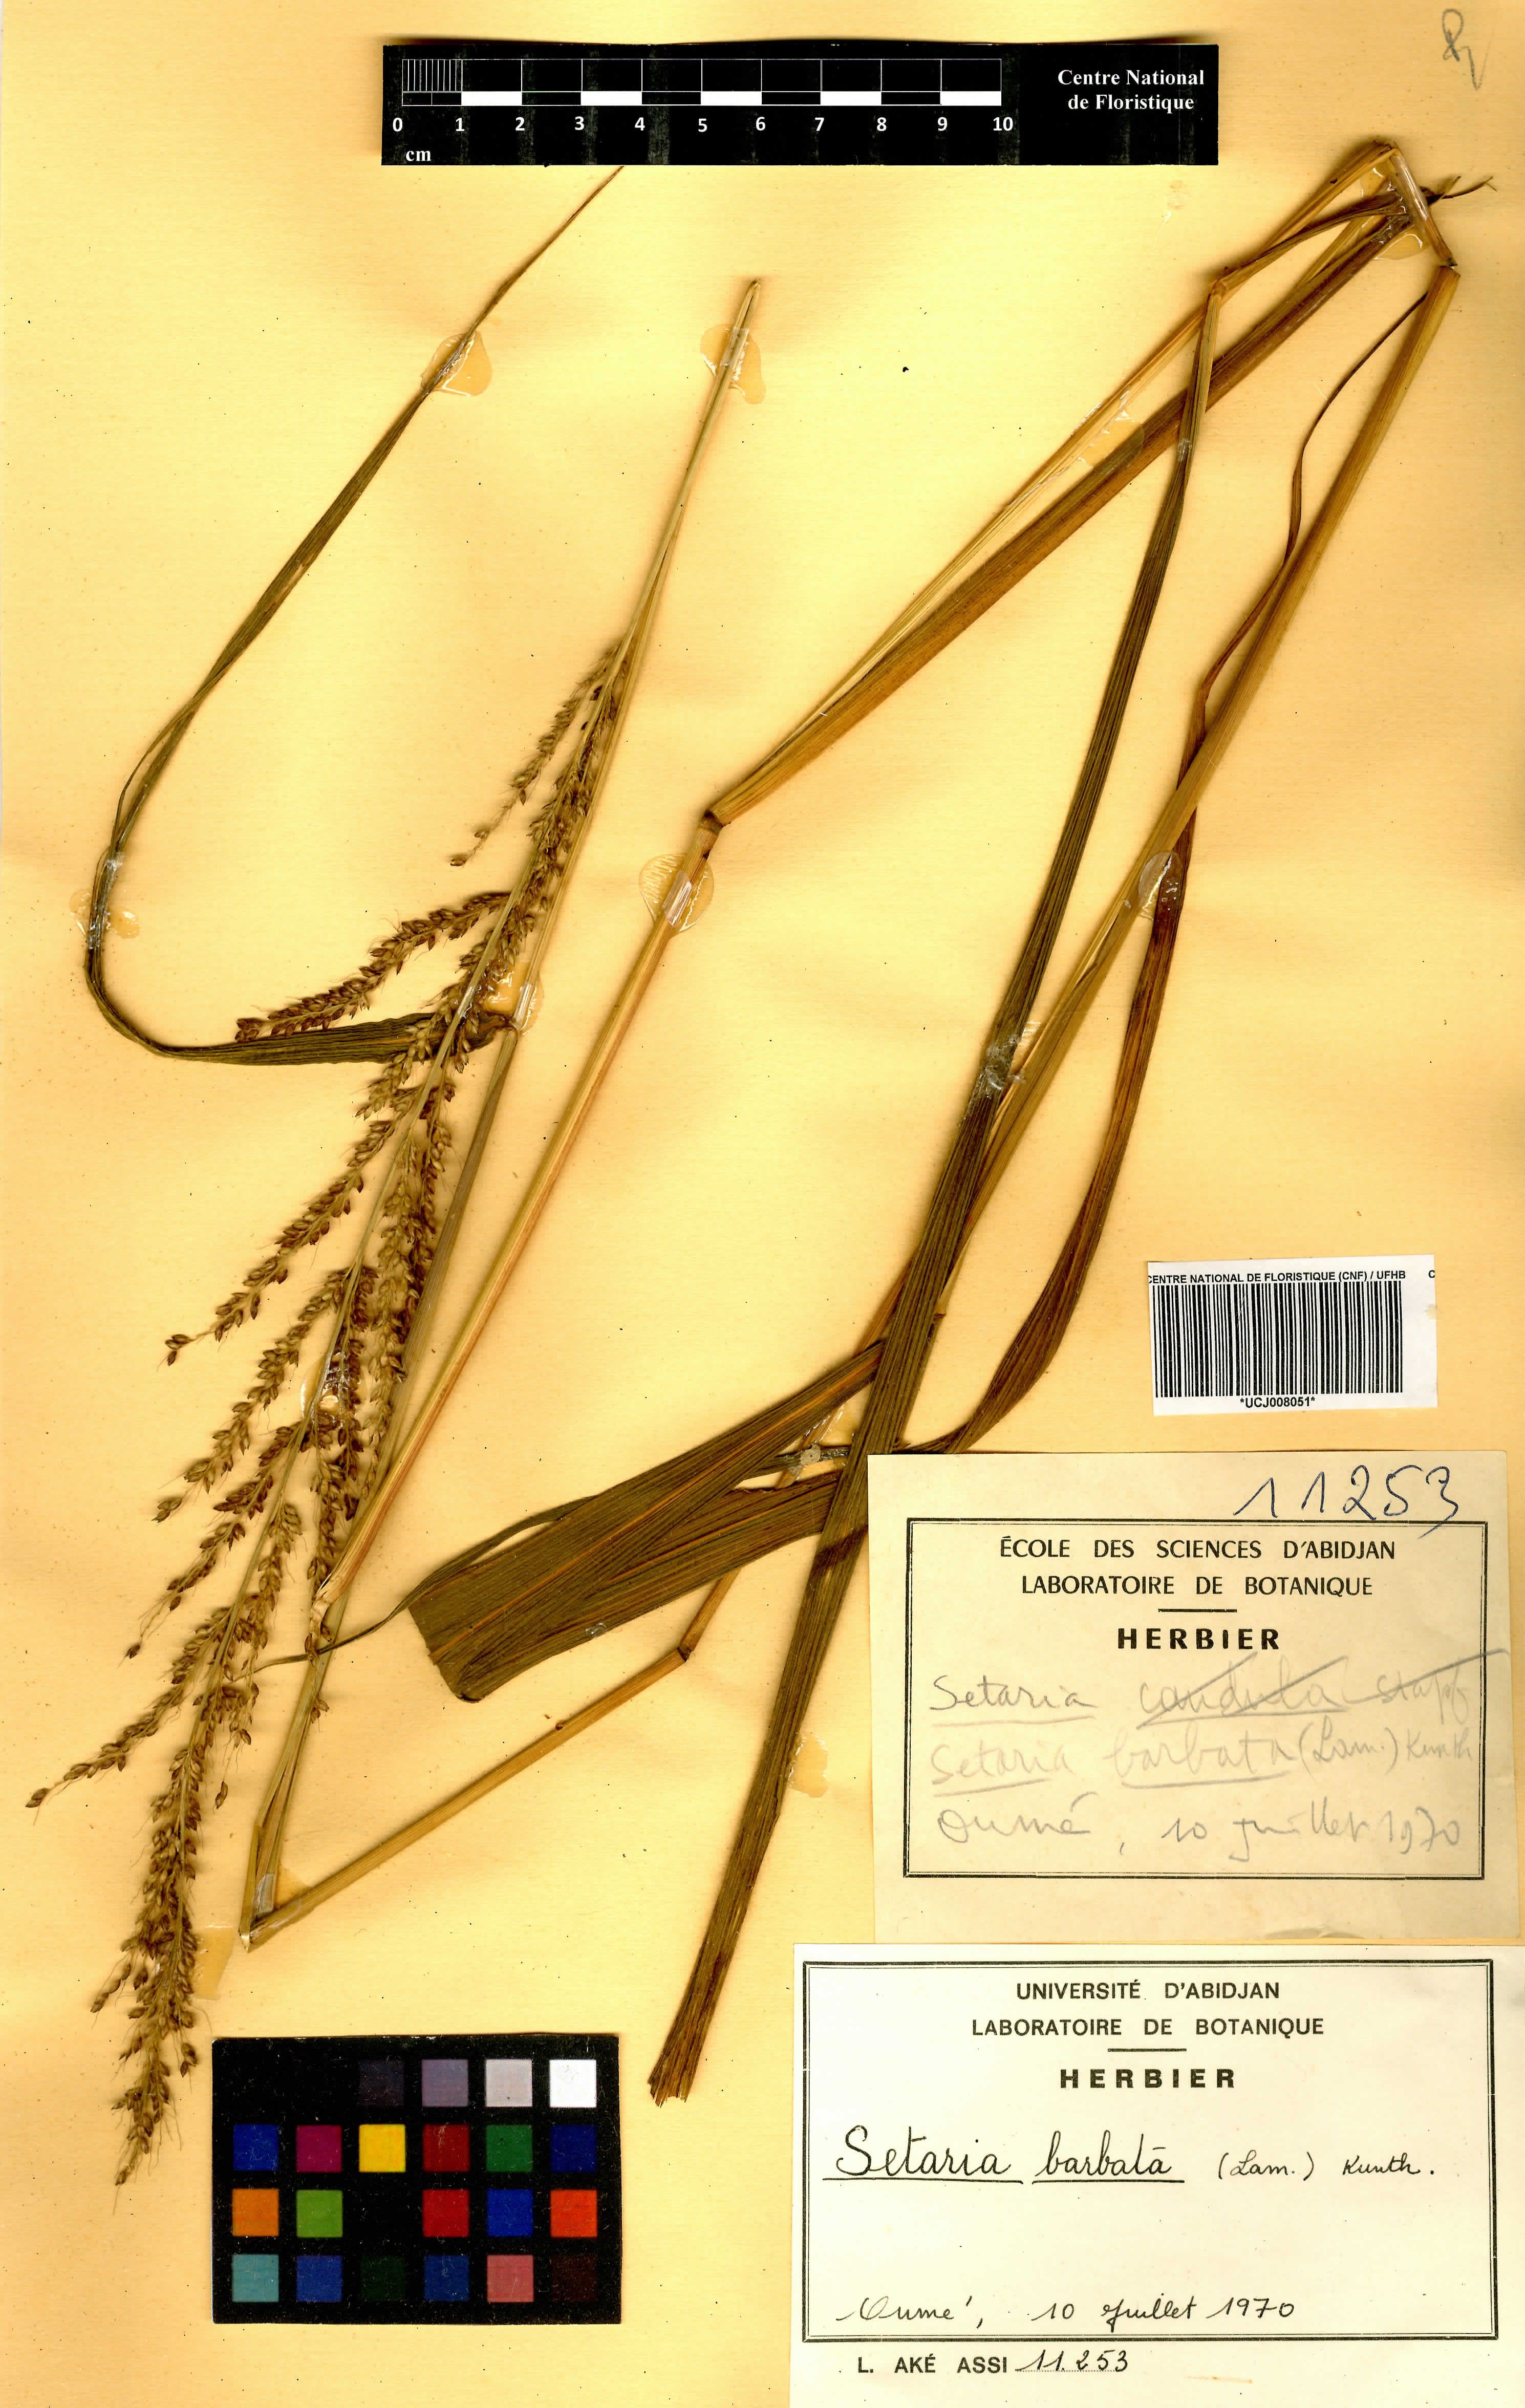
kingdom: Plantae
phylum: Tracheophyta
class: Liliopsida
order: Poales
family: Poaceae
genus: Setaria
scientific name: Setaria barbata
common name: East indian bristlegrass
